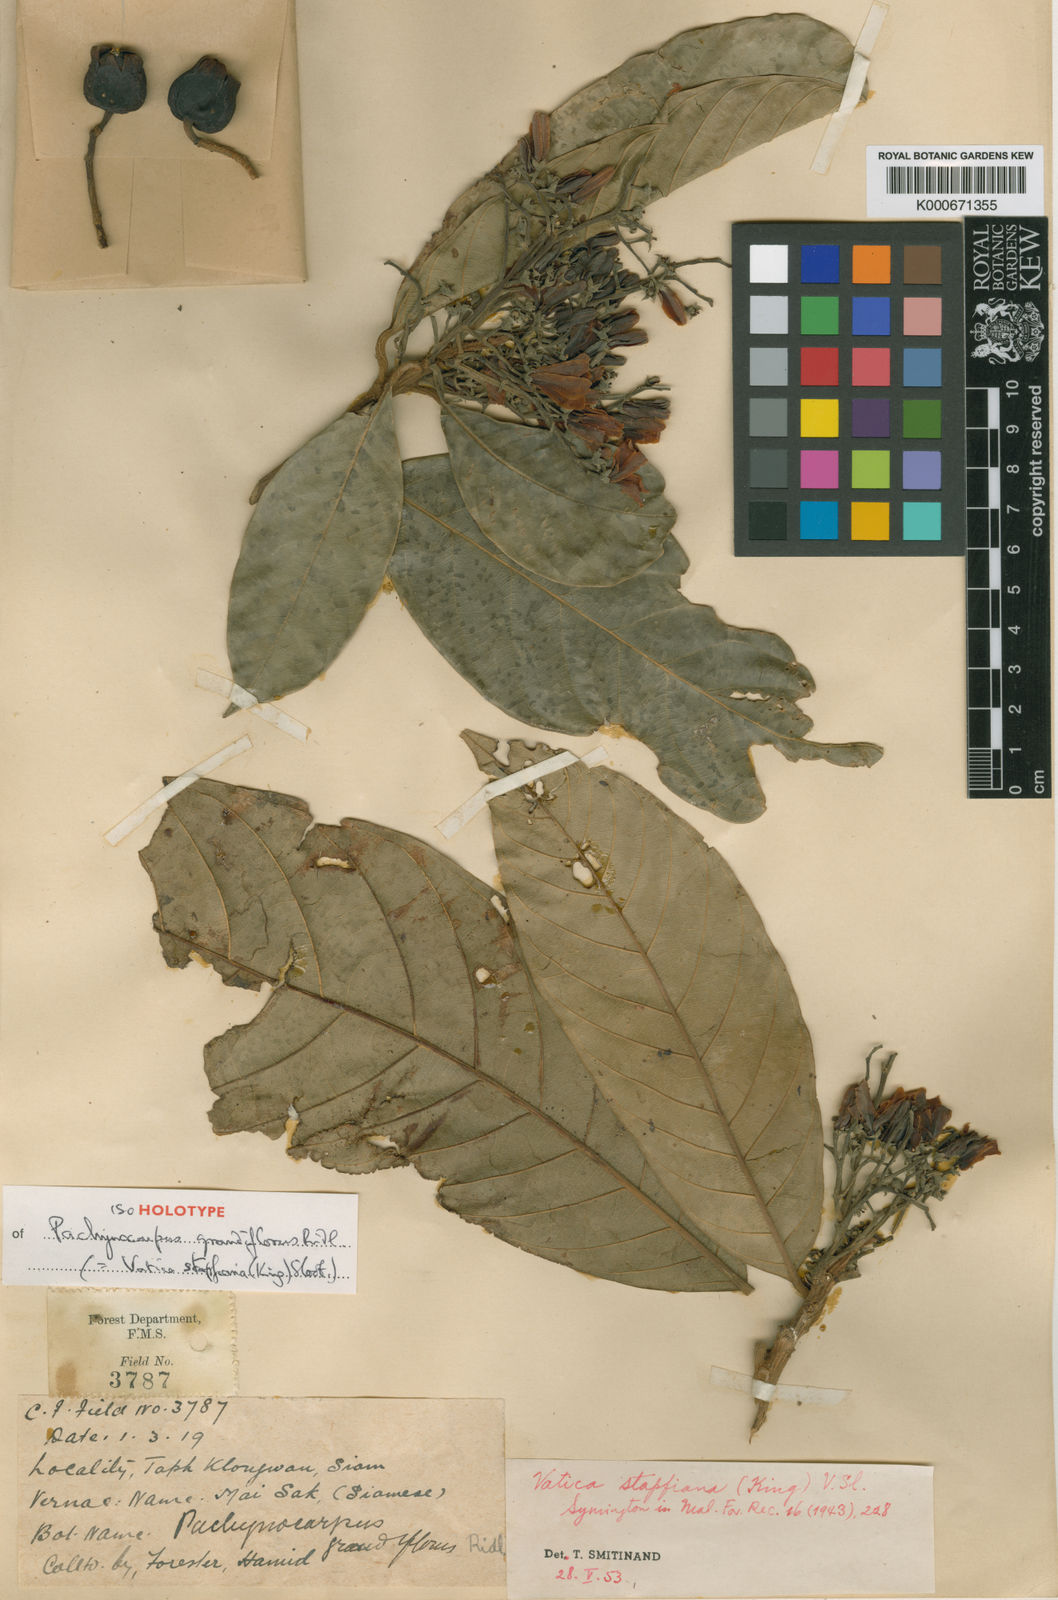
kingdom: Plantae
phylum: Tracheophyta
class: Magnoliopsida
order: Malvales
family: Dipterocarpaceae
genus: Vatica
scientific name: Vatica stapfiana
